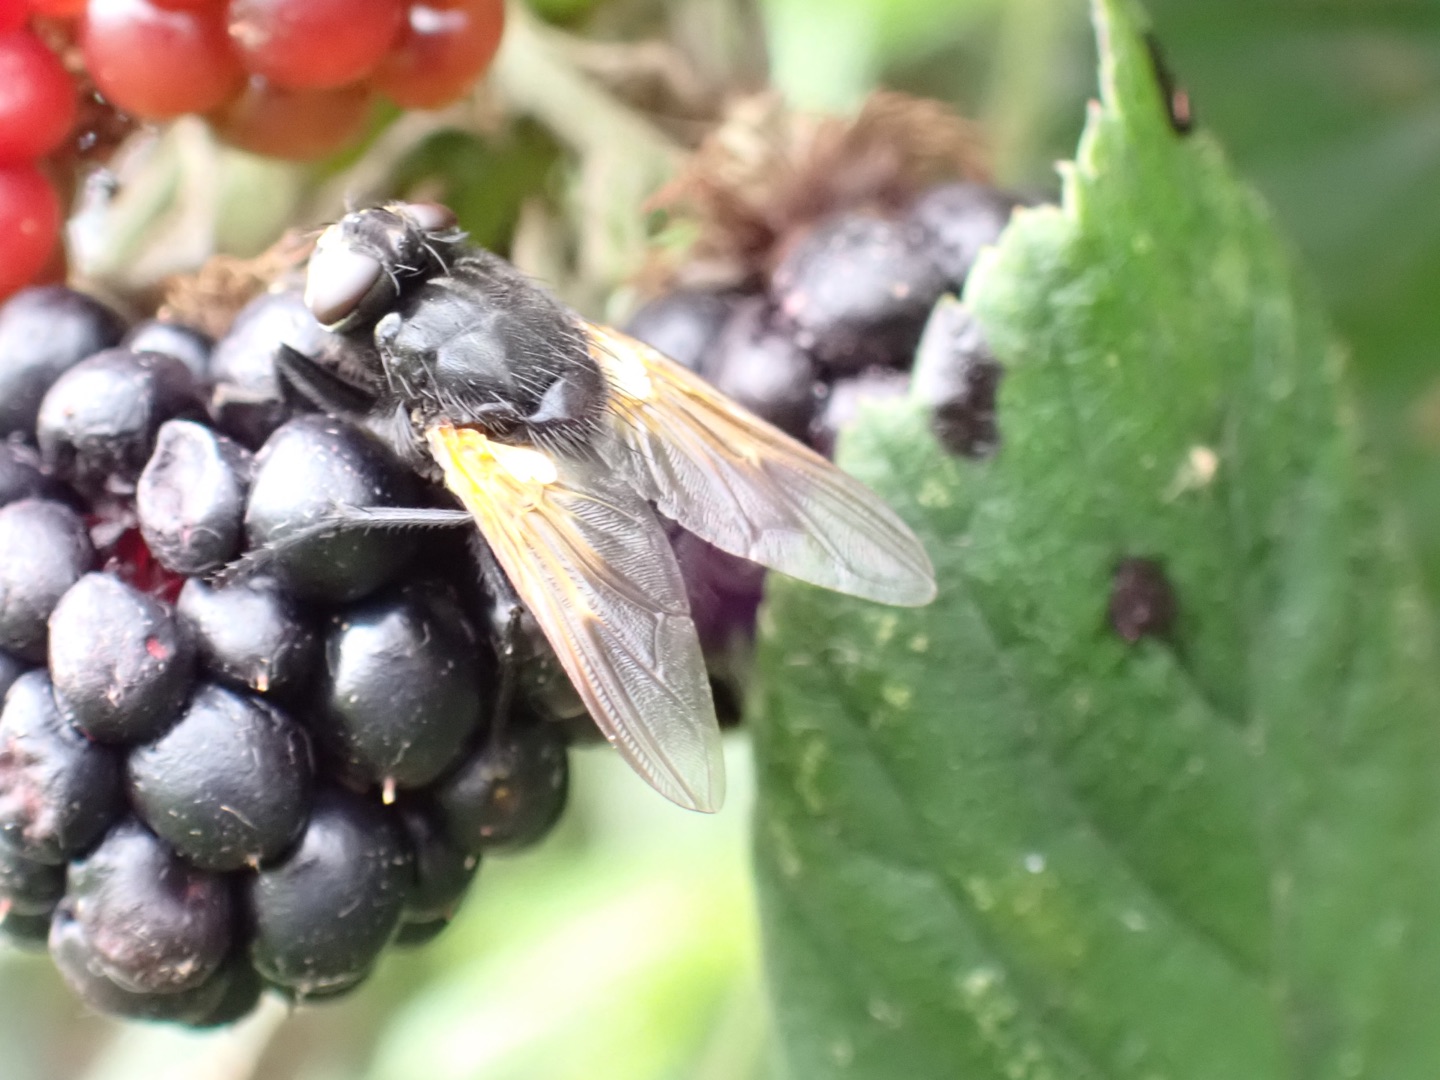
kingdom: Animalia
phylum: Arthropoda
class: Insecta
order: Diptera
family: Muscidae
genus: Mesembrina
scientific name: Mesembrina meridiana
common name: Gulvinget flue
